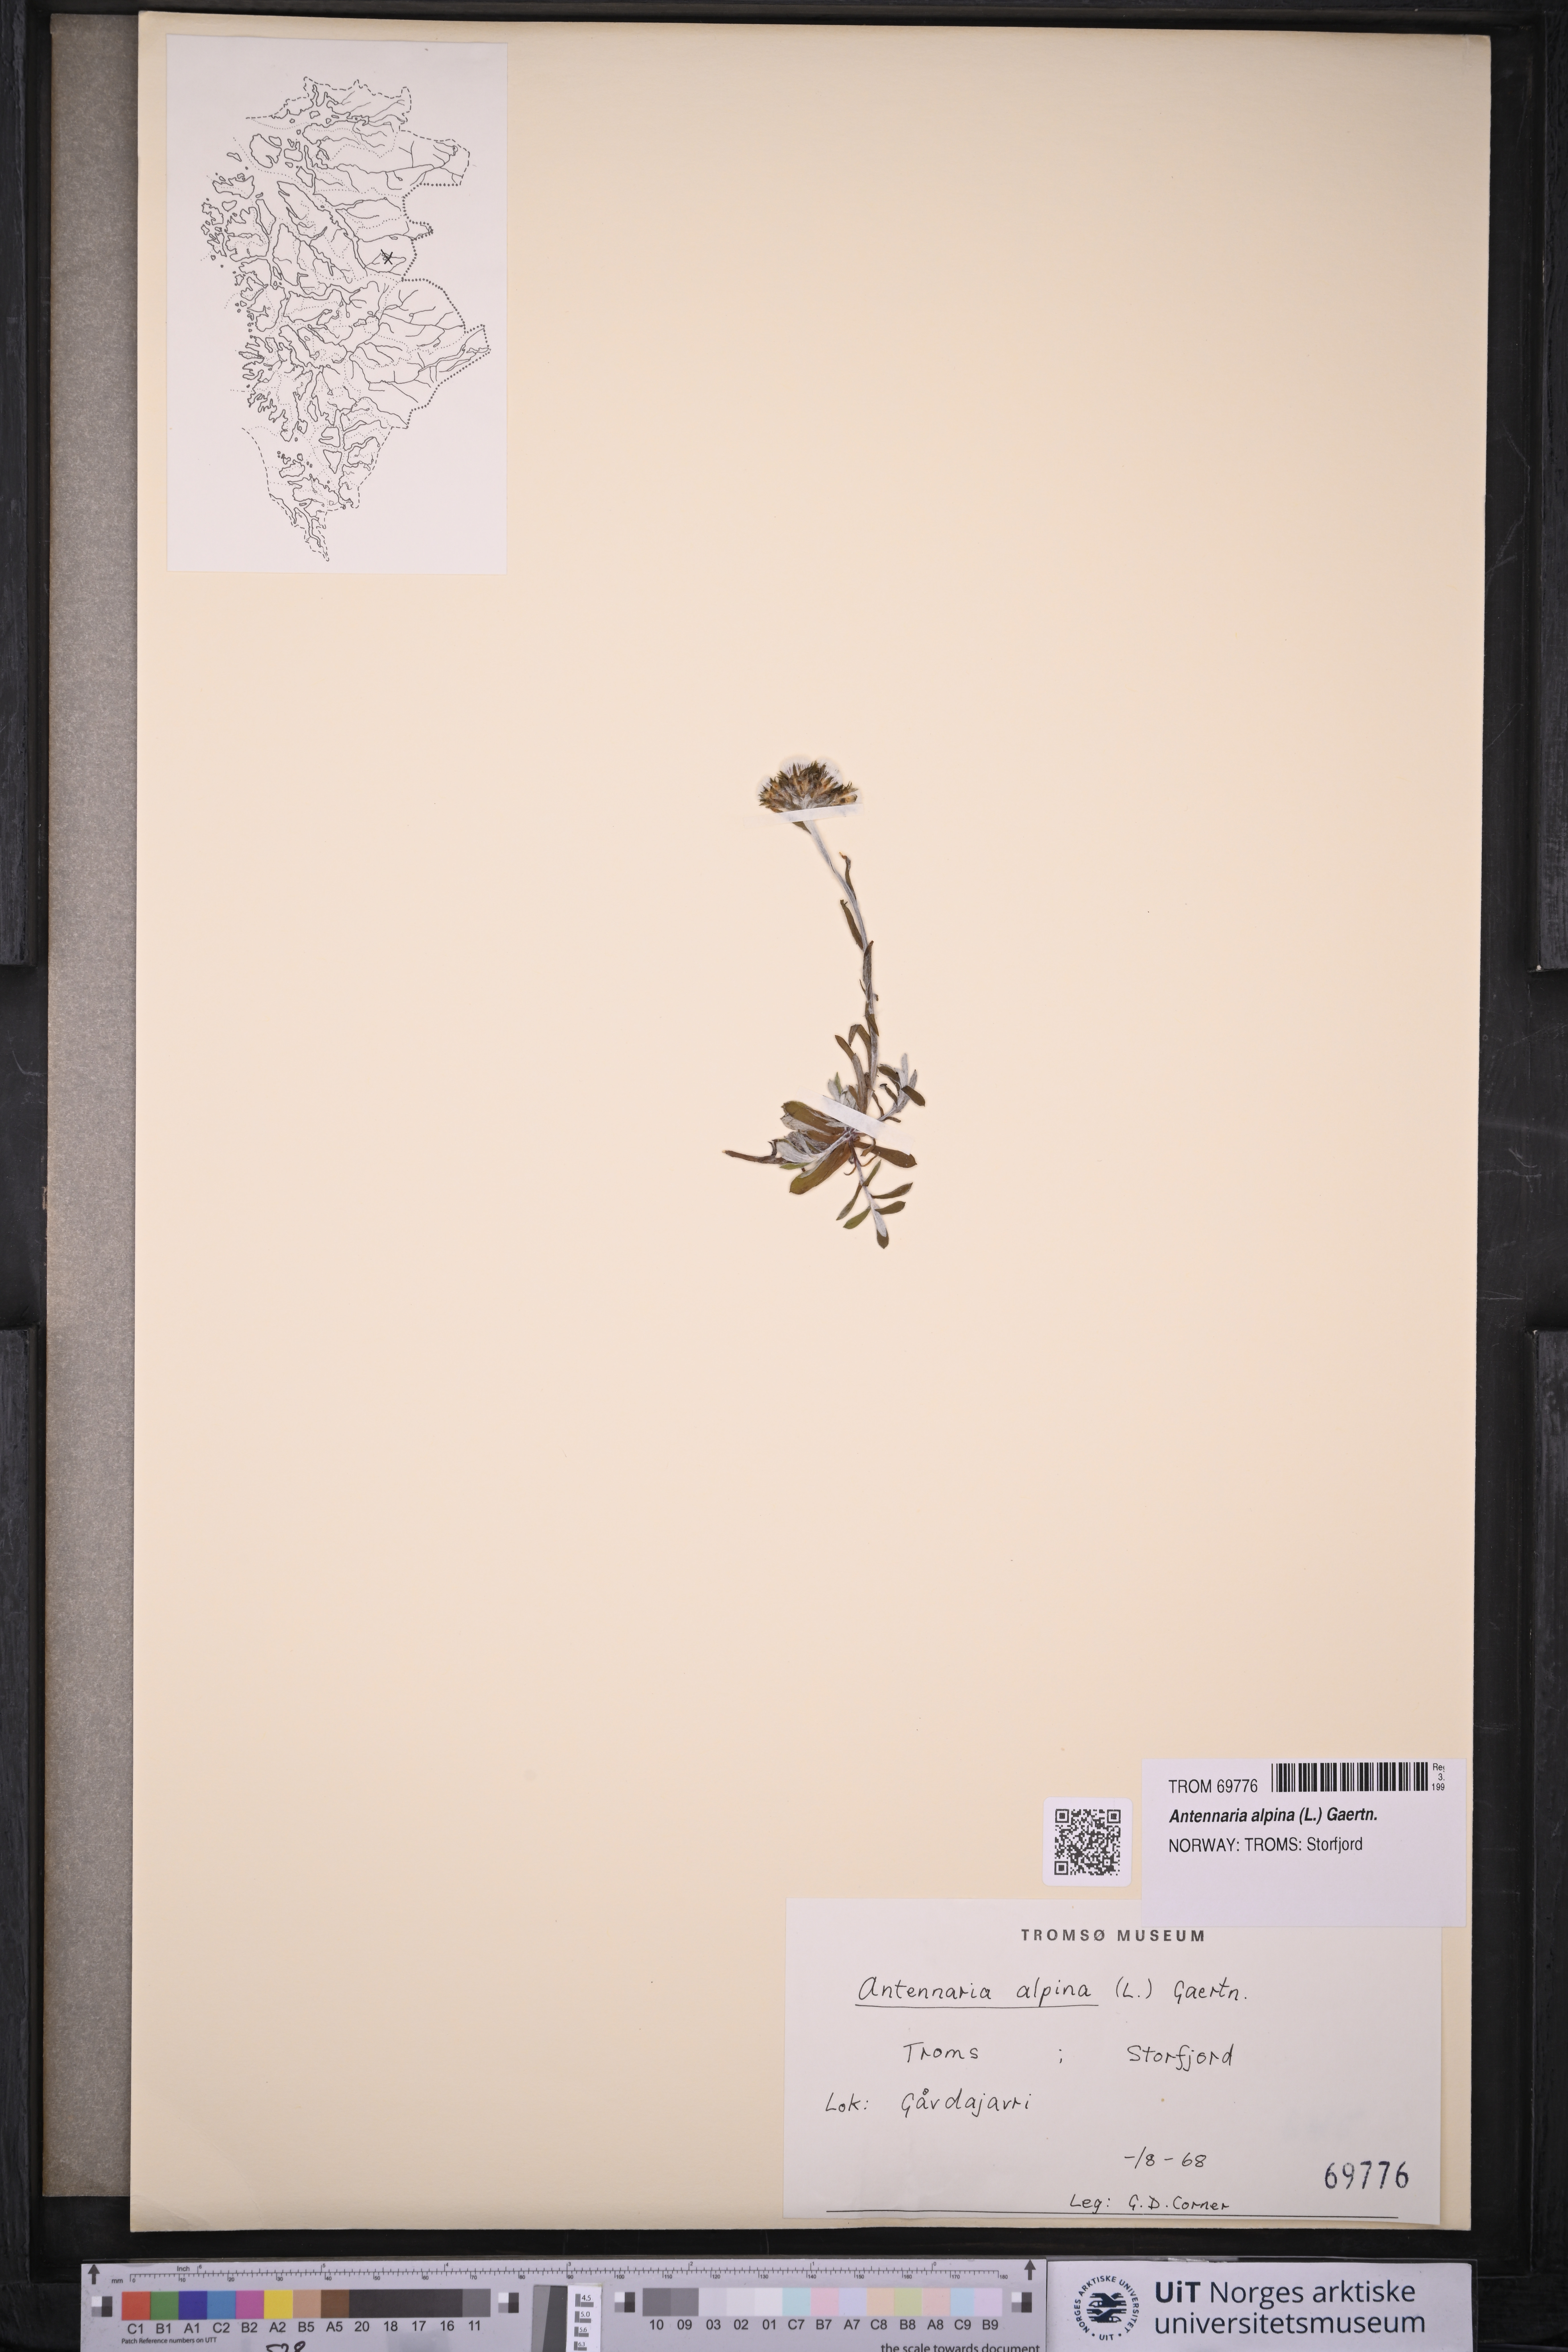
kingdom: Plantae
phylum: Tracheophyta
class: Magnoliopsida
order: Asterales
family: Asteraceae
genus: Antennaria
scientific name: Antennaria alpina
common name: Alpine pussytoes
